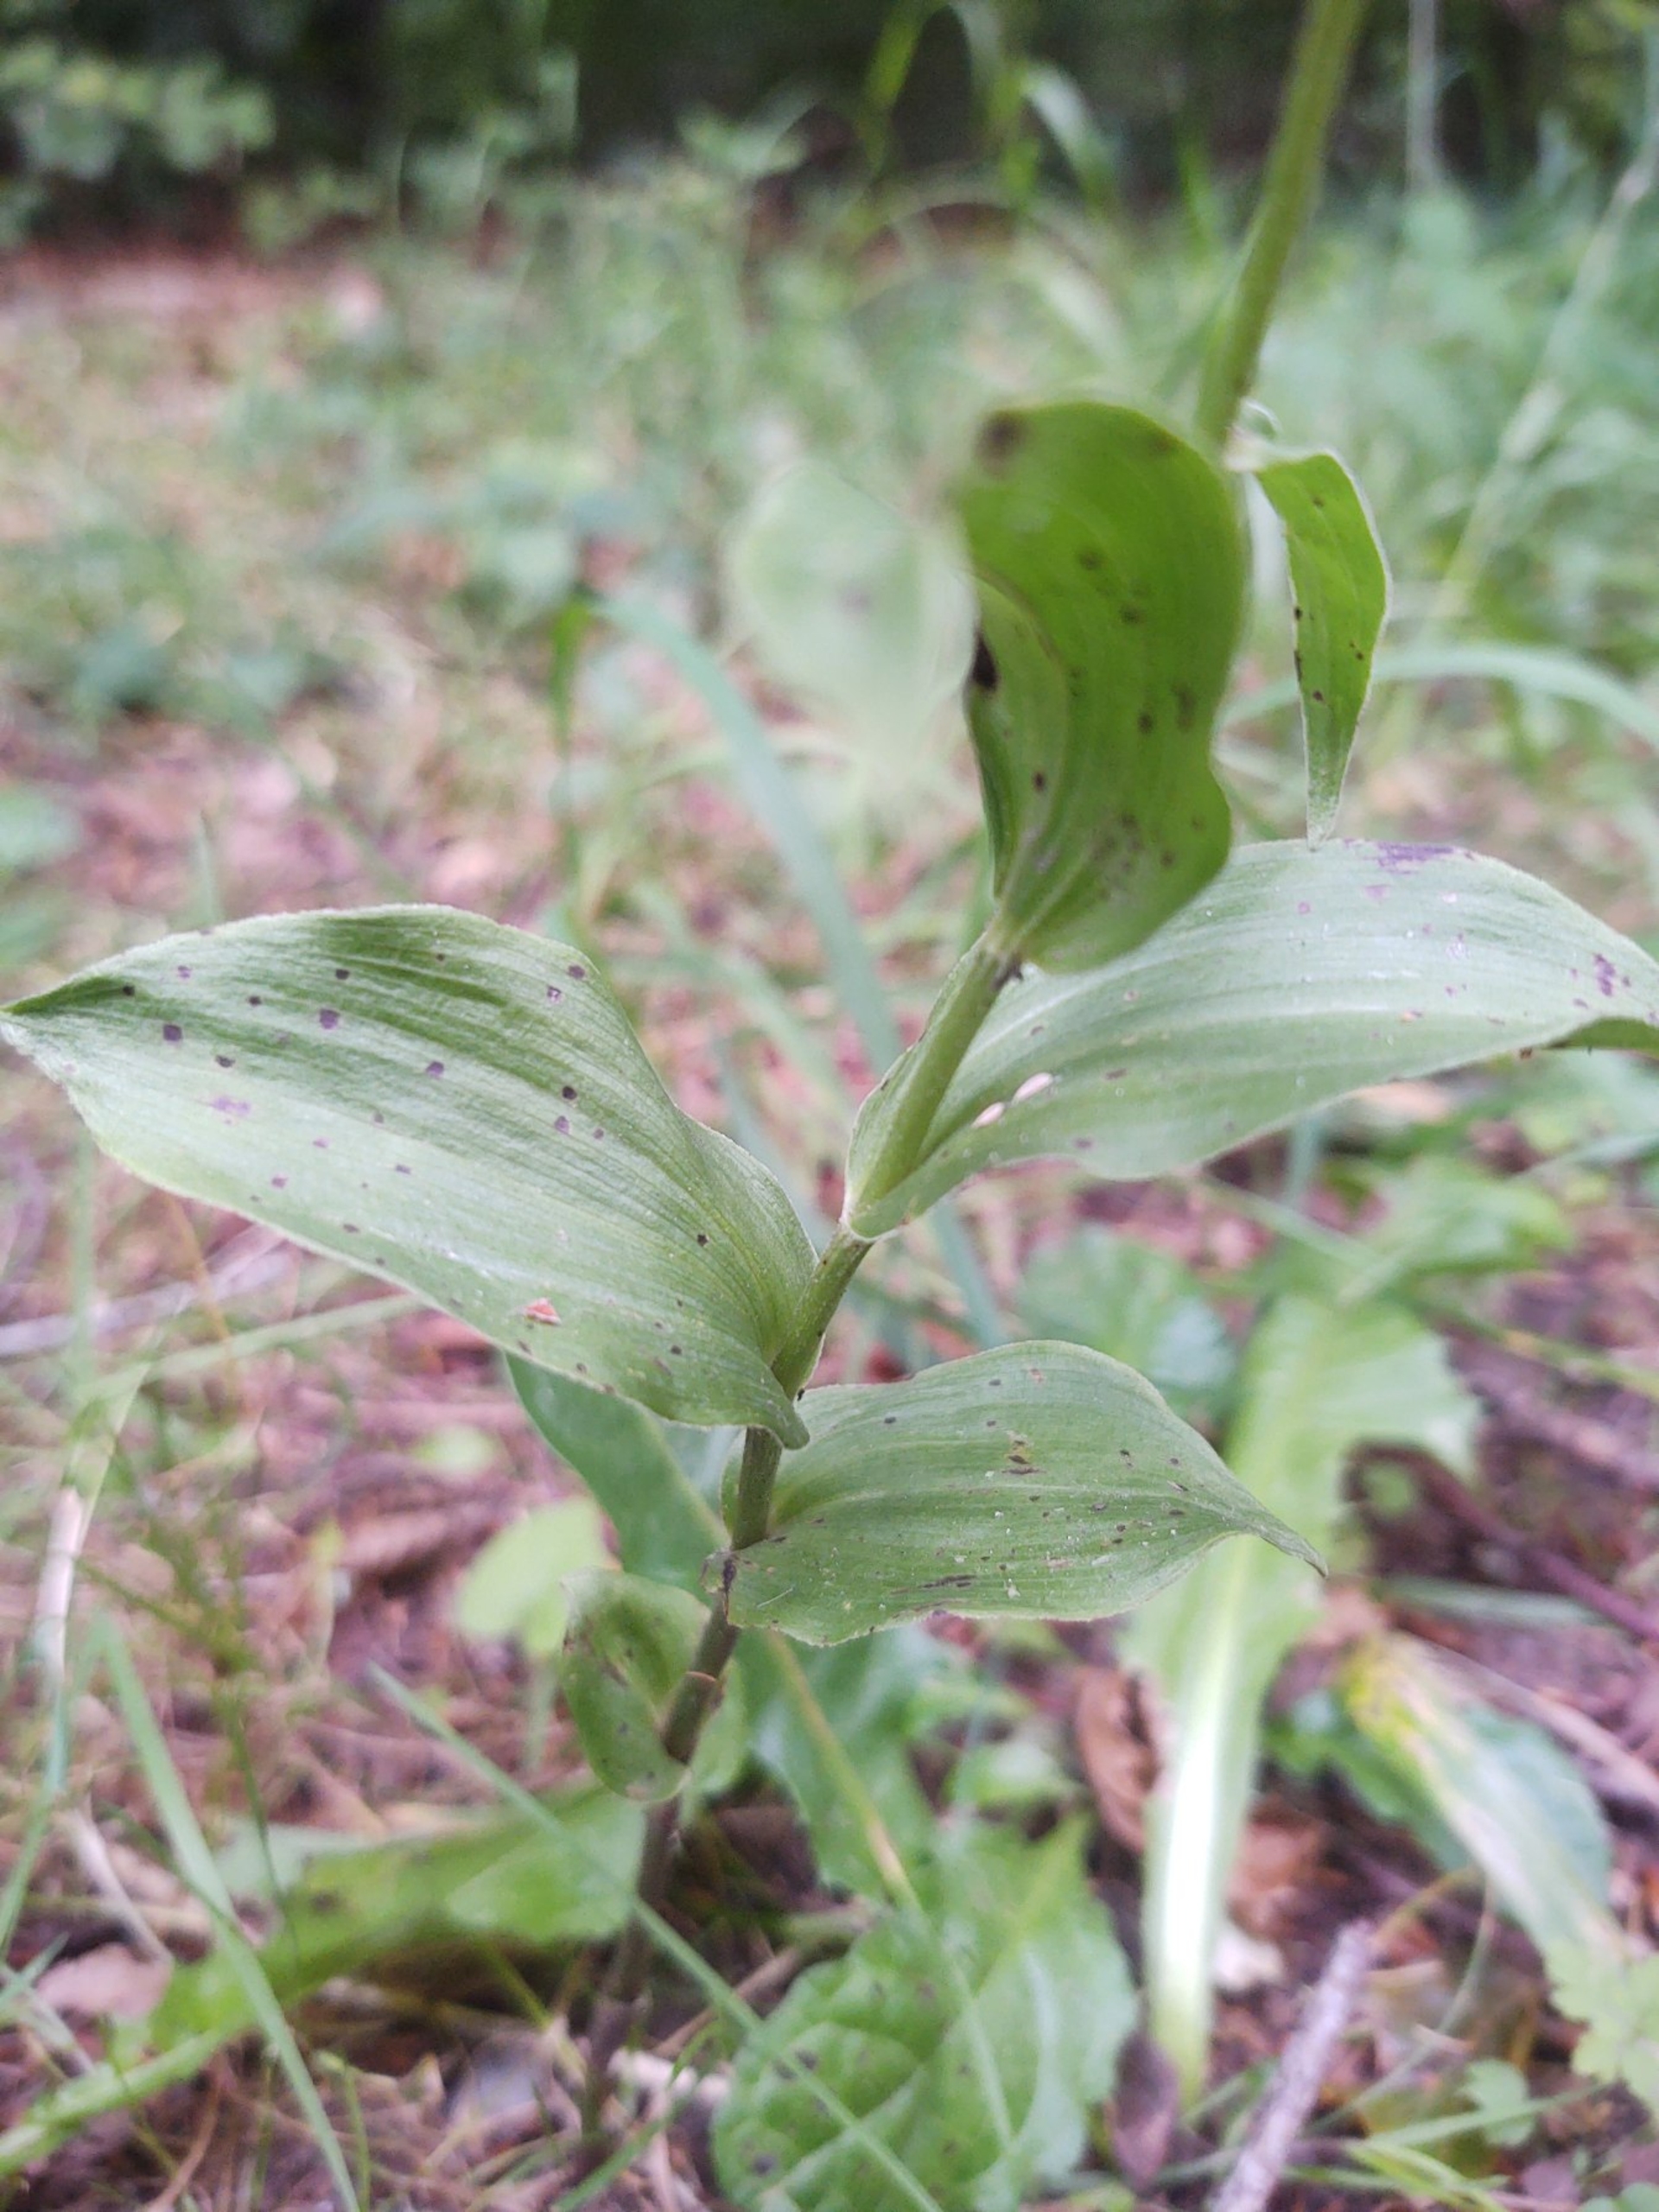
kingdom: Plantae
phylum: Tracheophyta
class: Liliopsida
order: Asparagales
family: Orchidaceae
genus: Epipactis
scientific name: Epipactis phyllanthes
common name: Nikkende hullæbe
